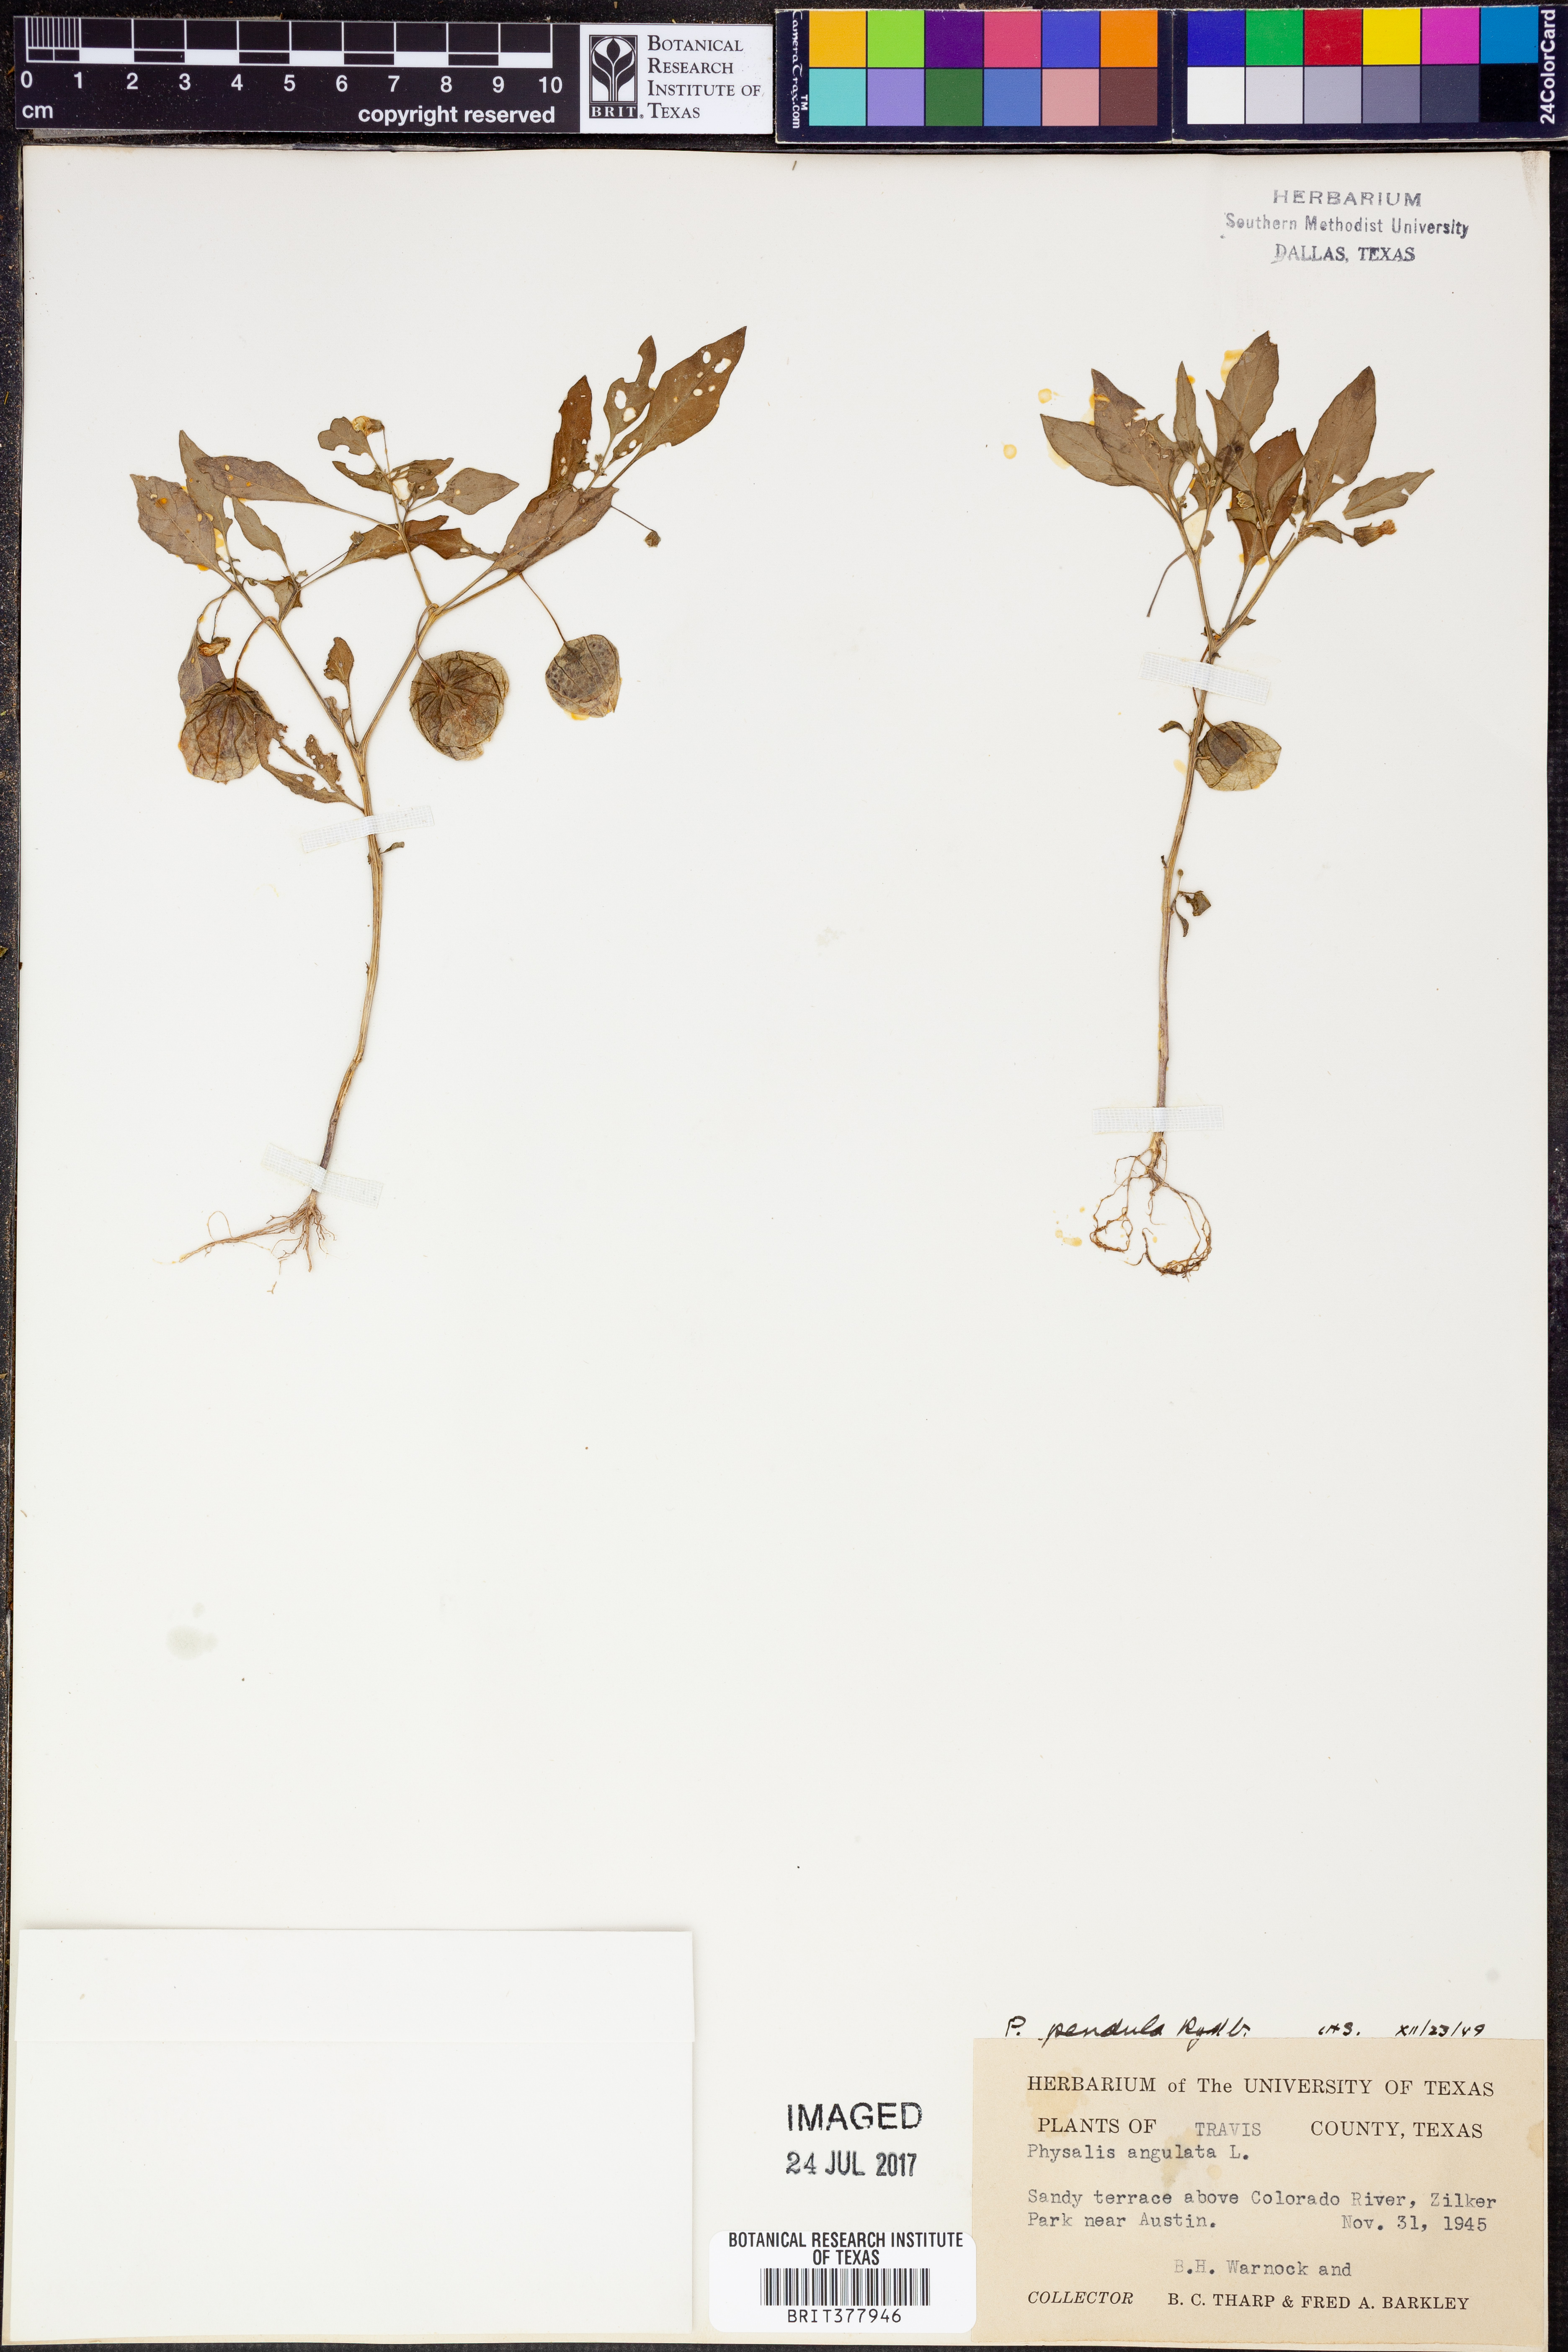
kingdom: Plantae
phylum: Tracheophyta
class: Magnoliopsida
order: Solanales
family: Solanaceae
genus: Physalis
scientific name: Physalis angulata
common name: Angular winter-cherry
